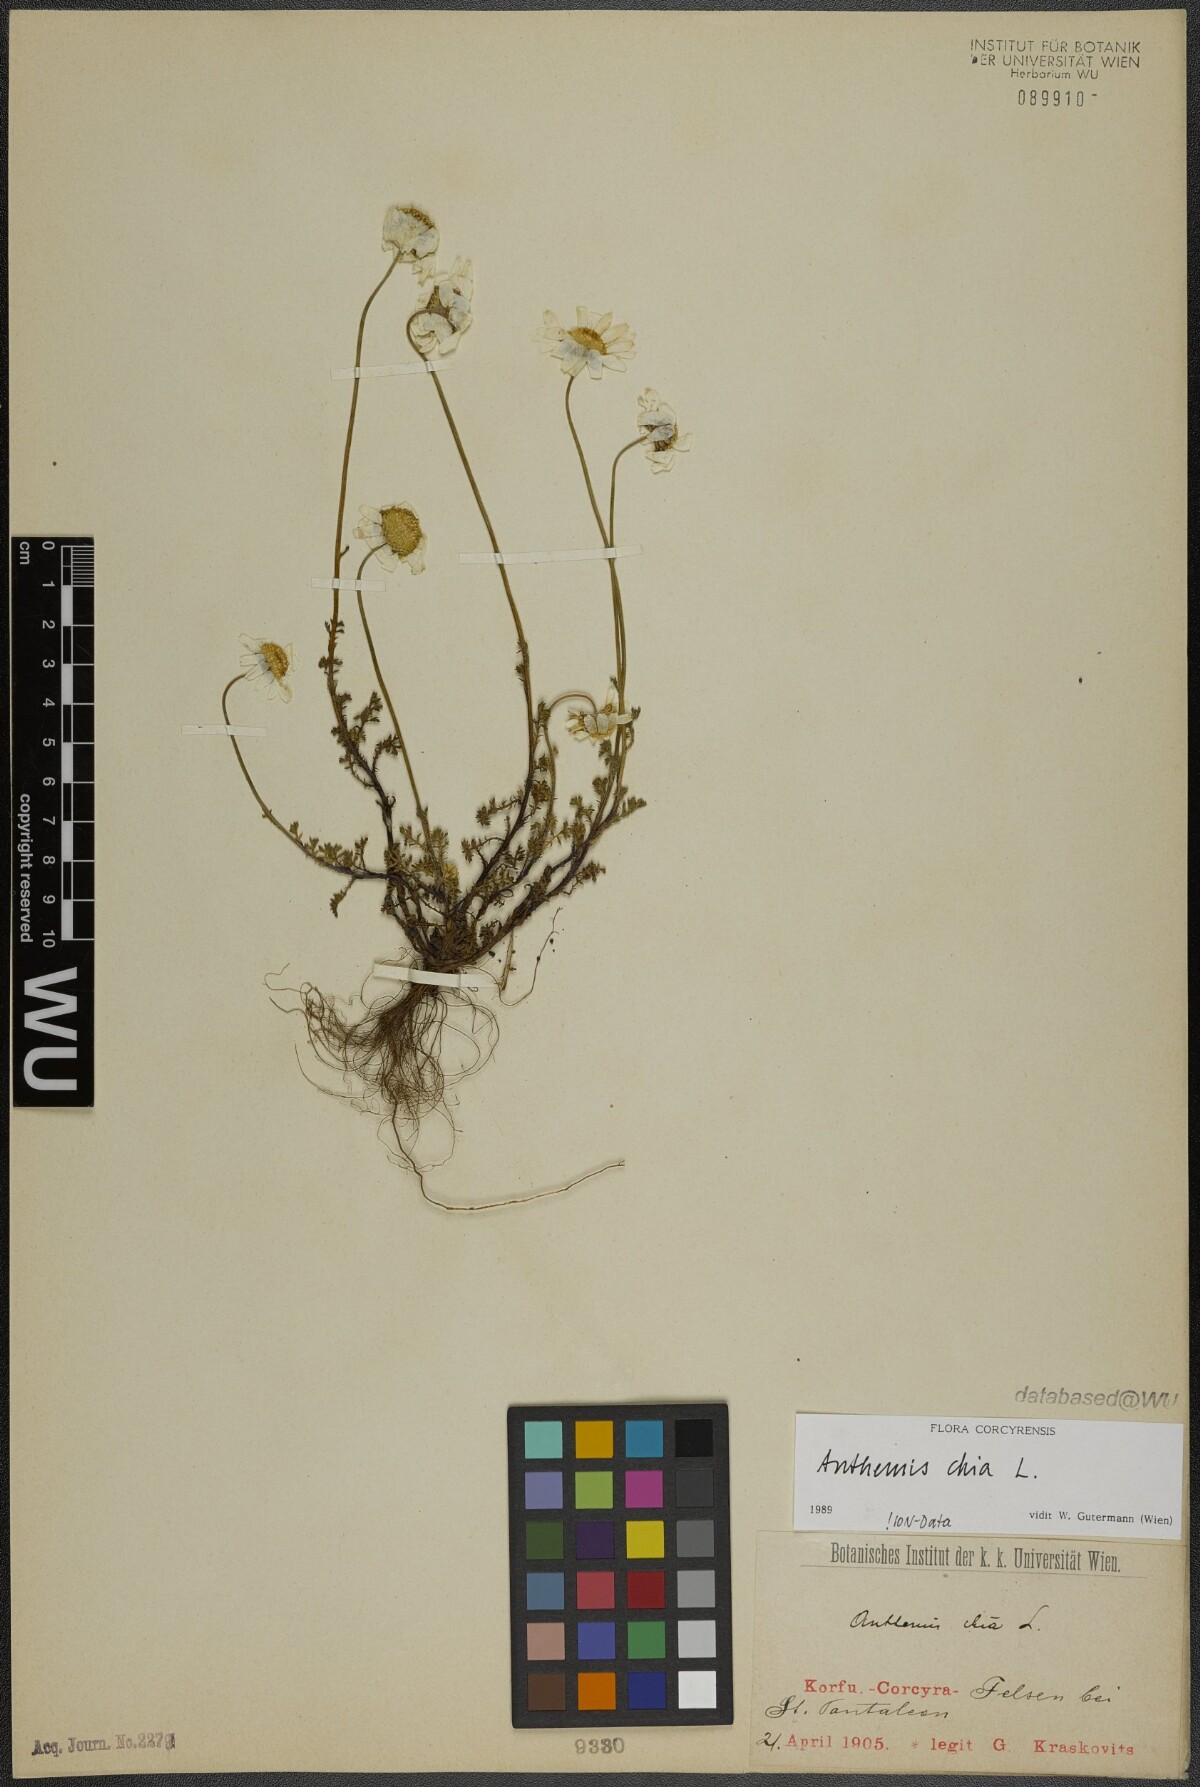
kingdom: Plantae
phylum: Tracheophyta
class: Magnoliopsida
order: Asterales
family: Asteraceae
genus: Anthemis
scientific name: Anthemis chia
